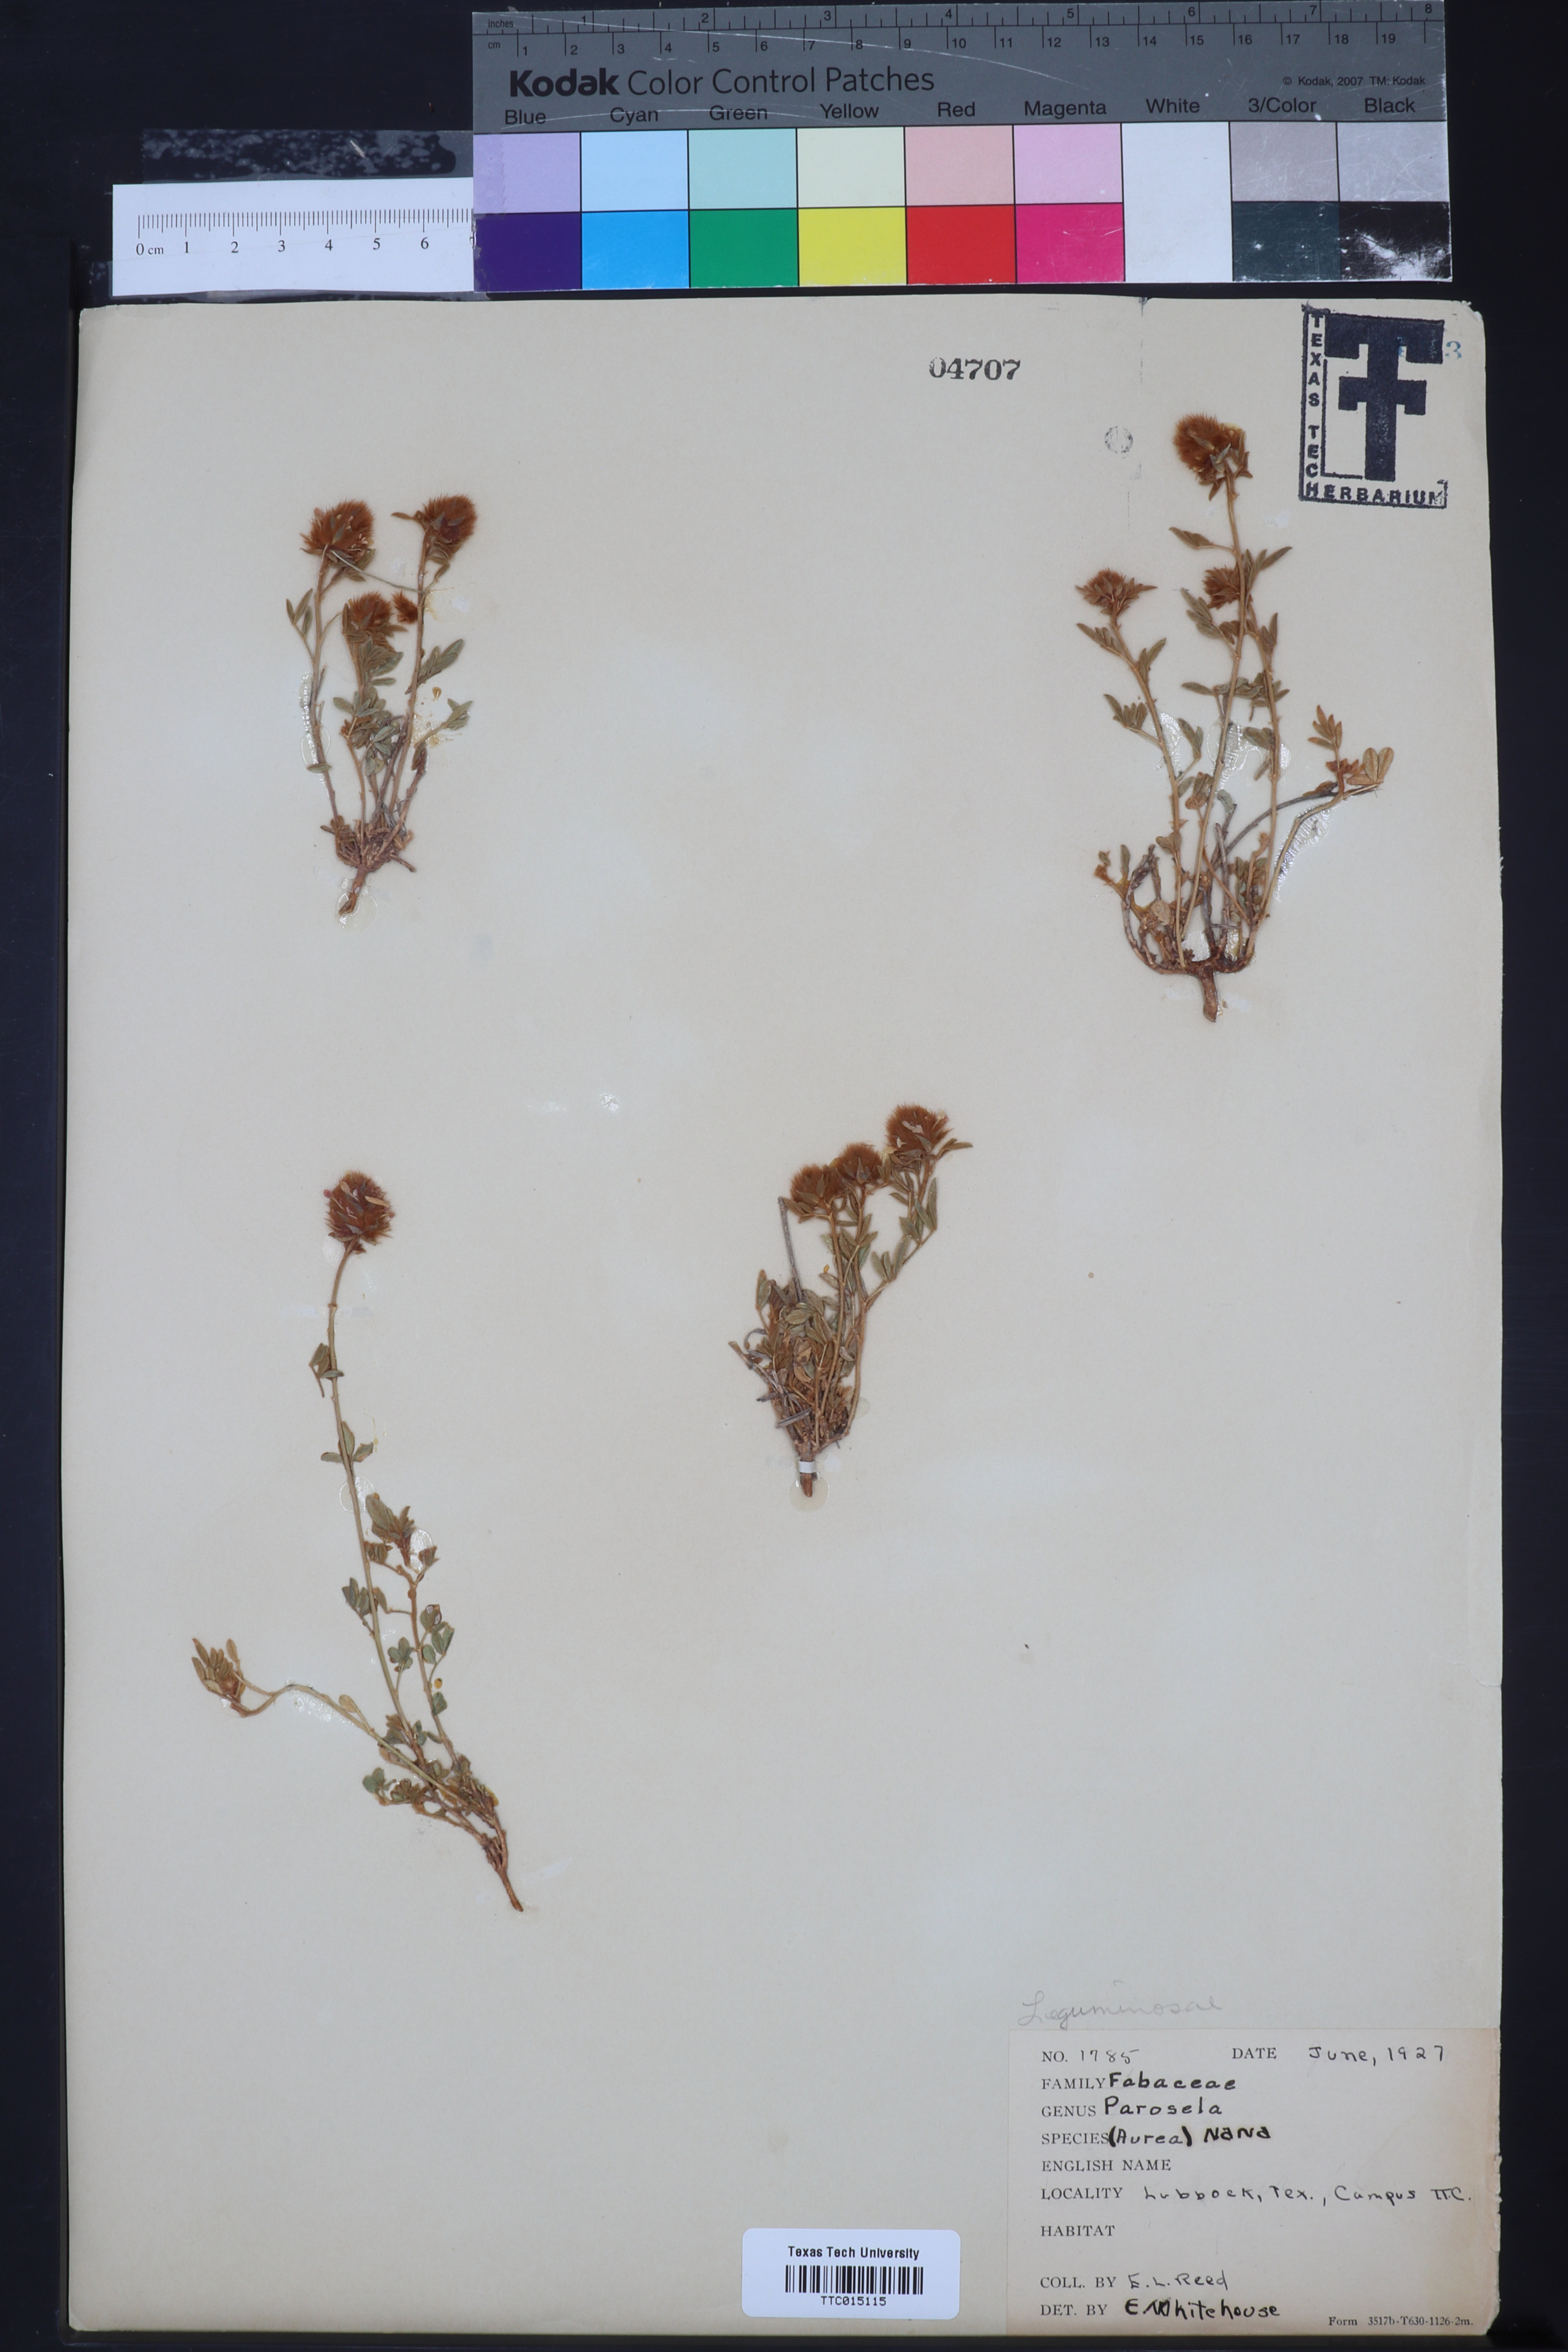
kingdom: Plantae
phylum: Tracheophyta
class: Magnoliopsida
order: Fabales
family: Fabaceae
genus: Dalea
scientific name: Dalea nana
